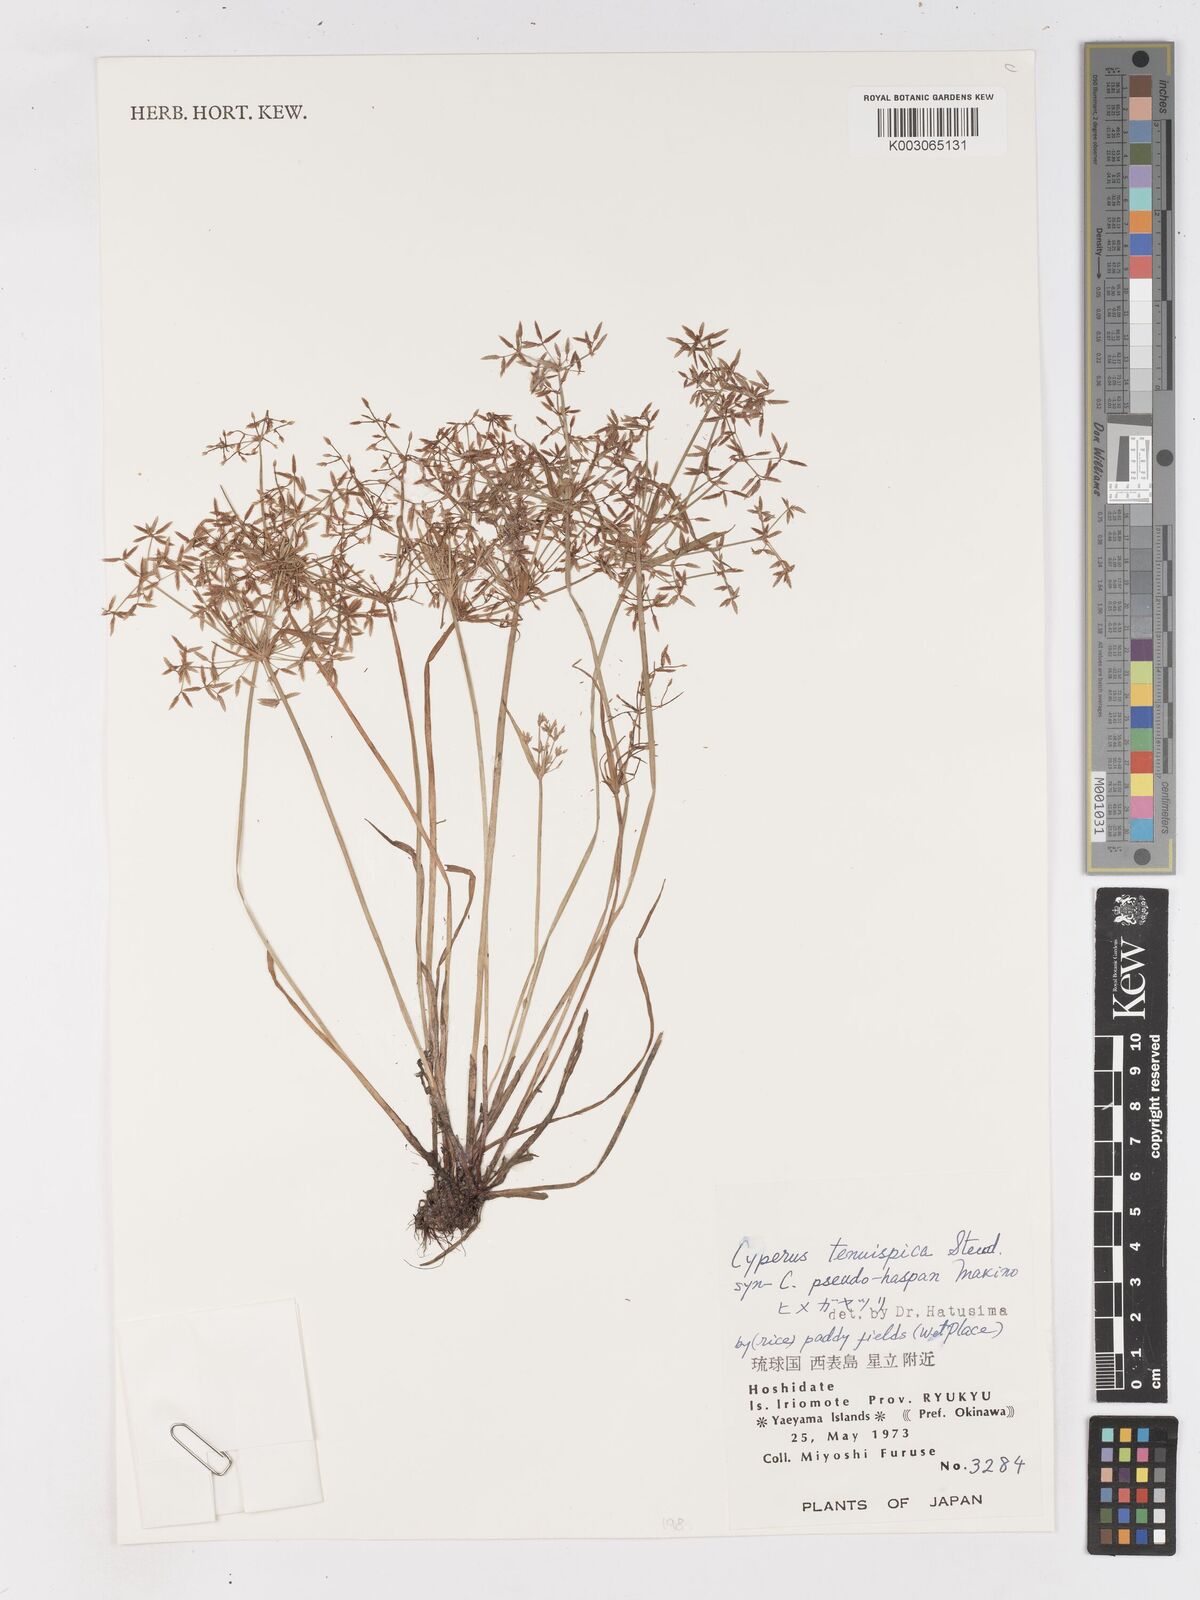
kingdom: Plantae
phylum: Tracheophyta
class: Liliopsida
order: Poales
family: Cyperaceae
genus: Cyperus
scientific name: Cyperus tenuispica
